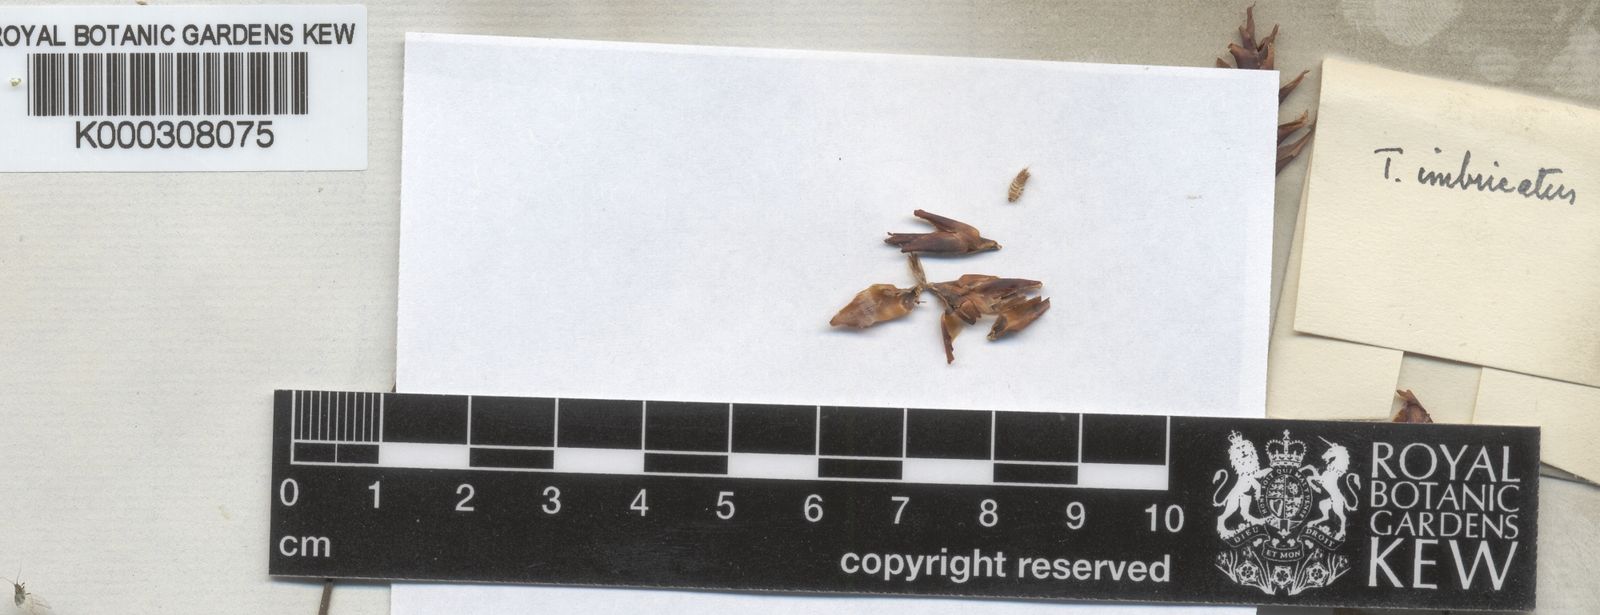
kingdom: Plantae
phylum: Tracheophyta
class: Liliopsida
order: Poales
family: Restionaceae
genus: Staberoha
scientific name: Staberoha aemula
